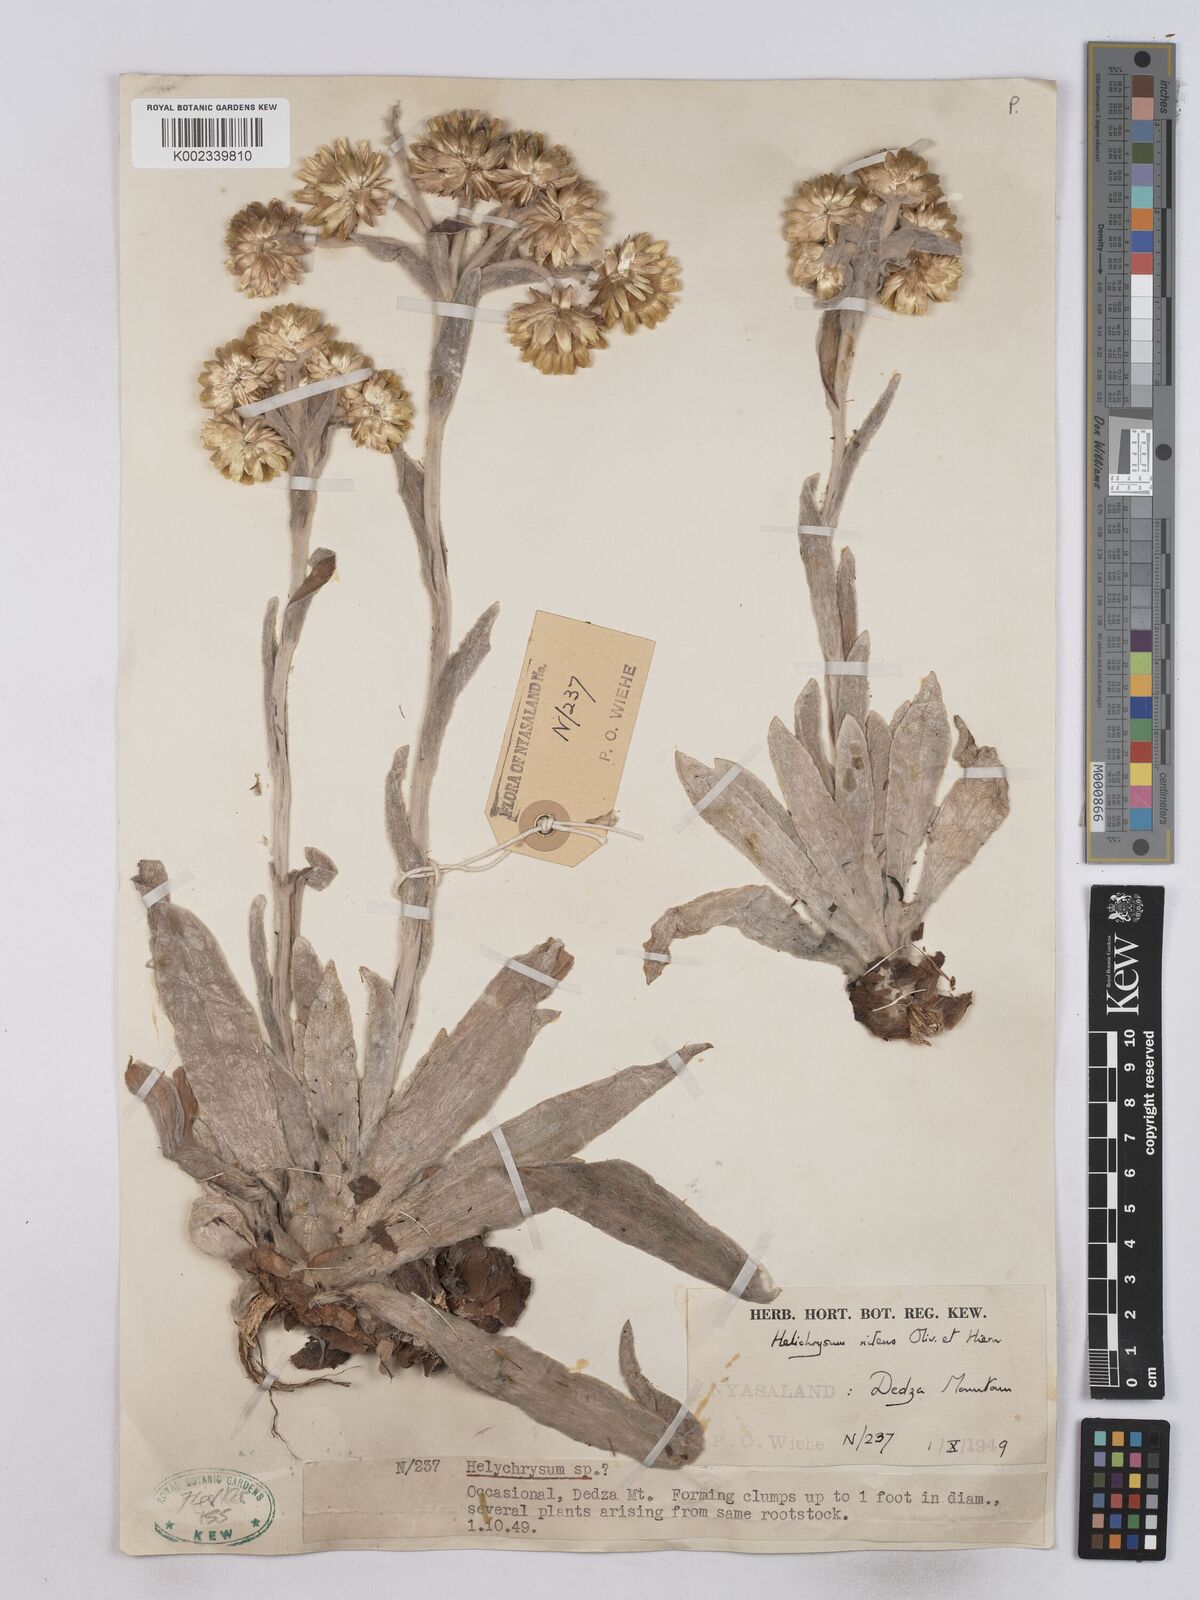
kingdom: Plantae
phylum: Tracheophyta
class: Magnoliopsida
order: Asterales
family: Asteraceae
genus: Helichrysum
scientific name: Helichrysum nitens
